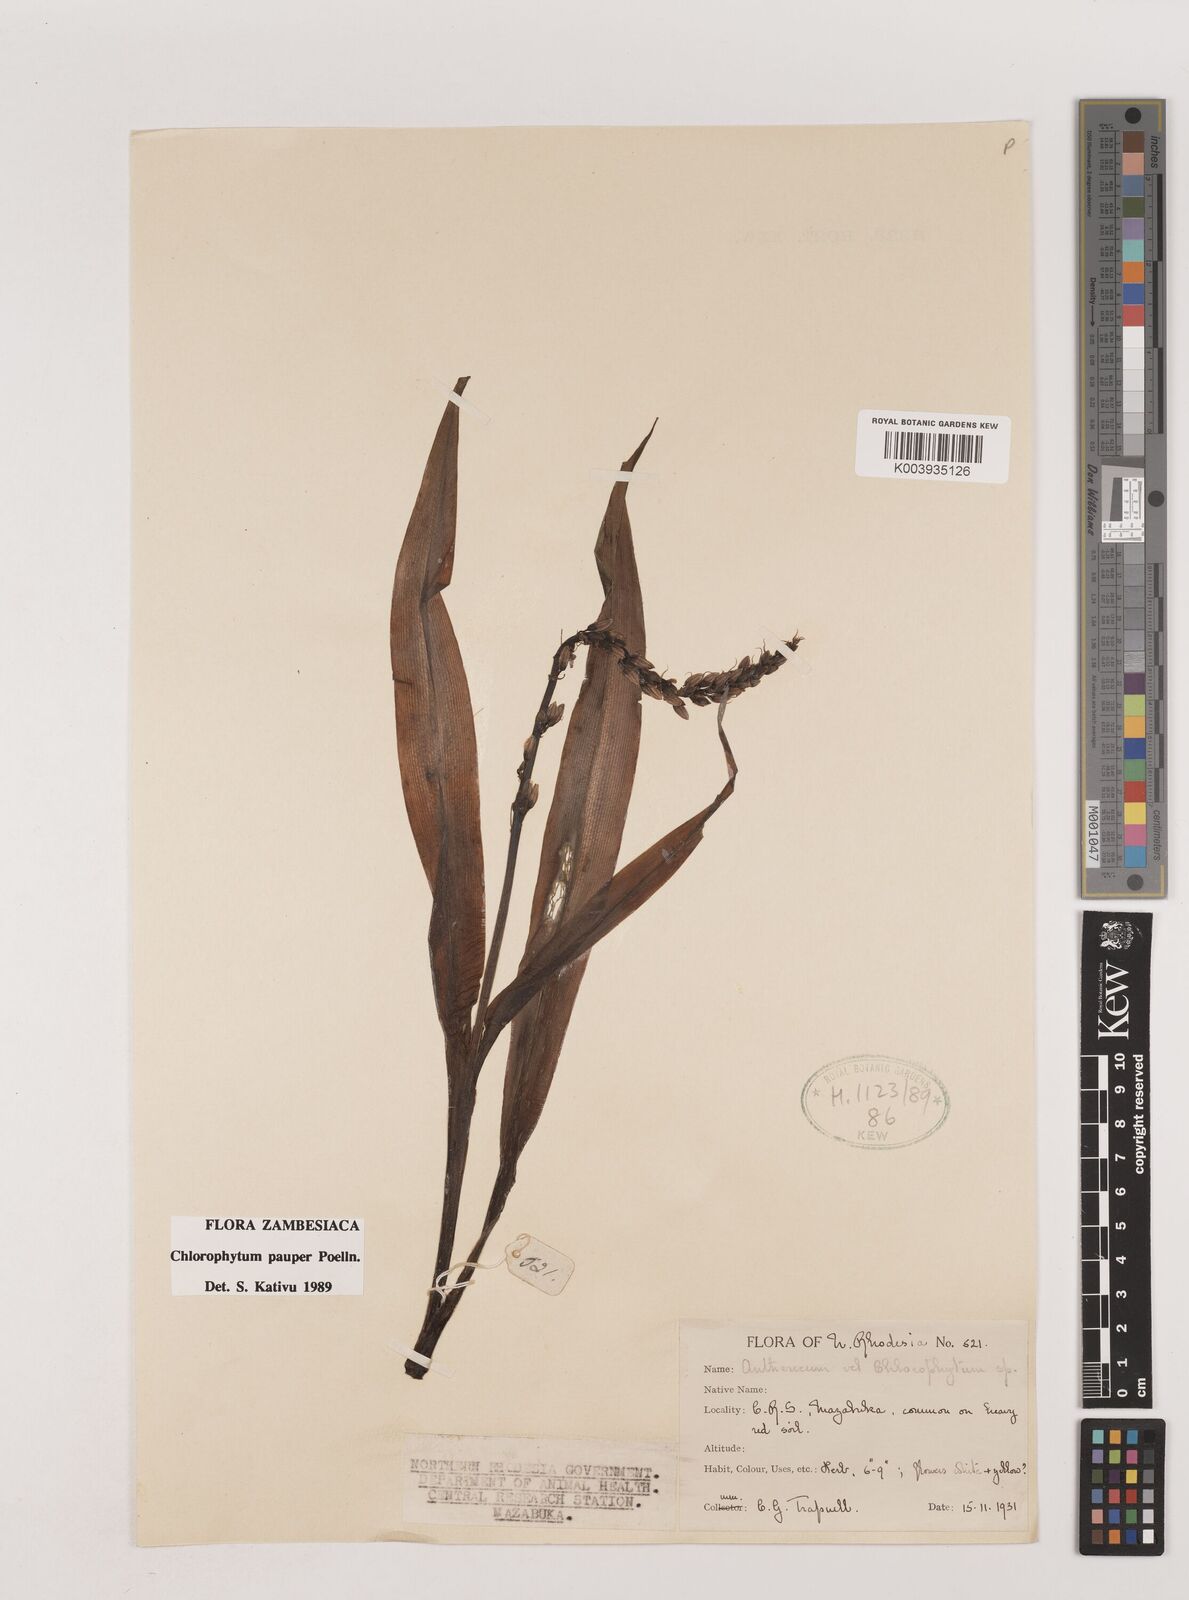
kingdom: Plantae
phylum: Tracheophyta
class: Liliopsida
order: Asparagales
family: Asparagaceae
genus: Chlorophytum
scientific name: Chlorophytum pauper
